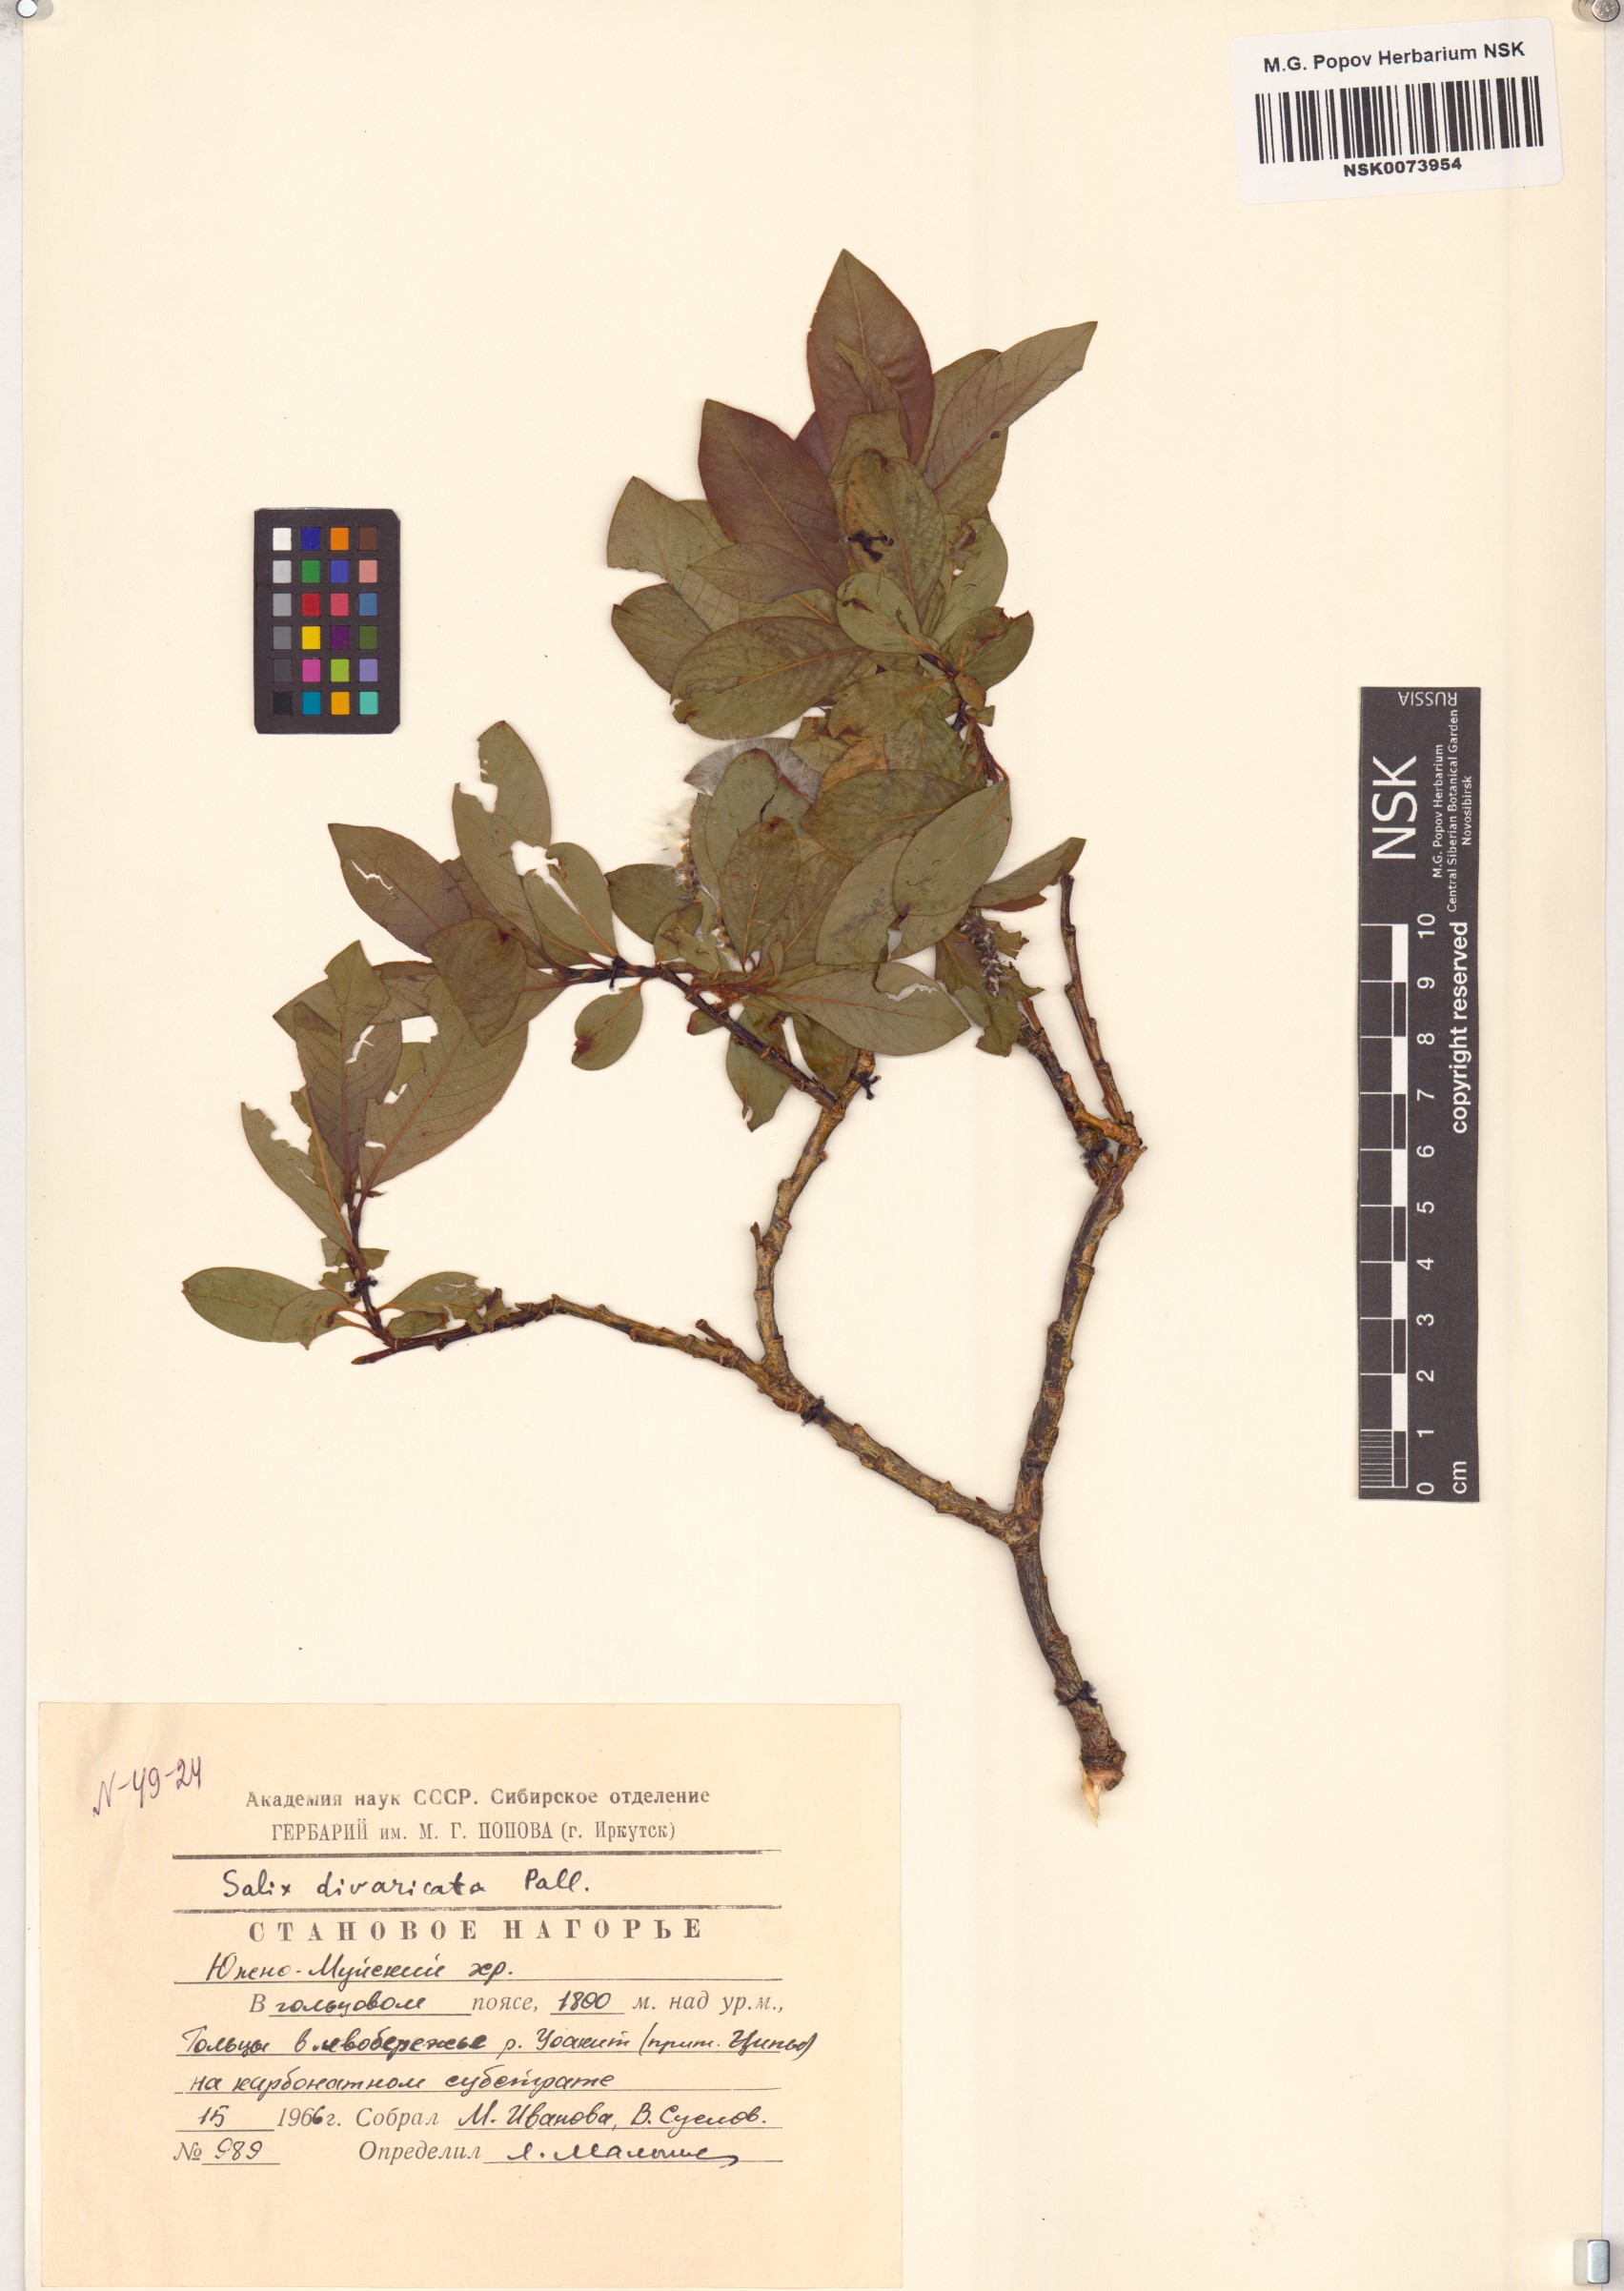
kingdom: Plantae
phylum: Tracheophyta
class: Magnoliopsida
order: Malpighiales
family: Salicaceae
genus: Salix
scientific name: Salix divaricata
